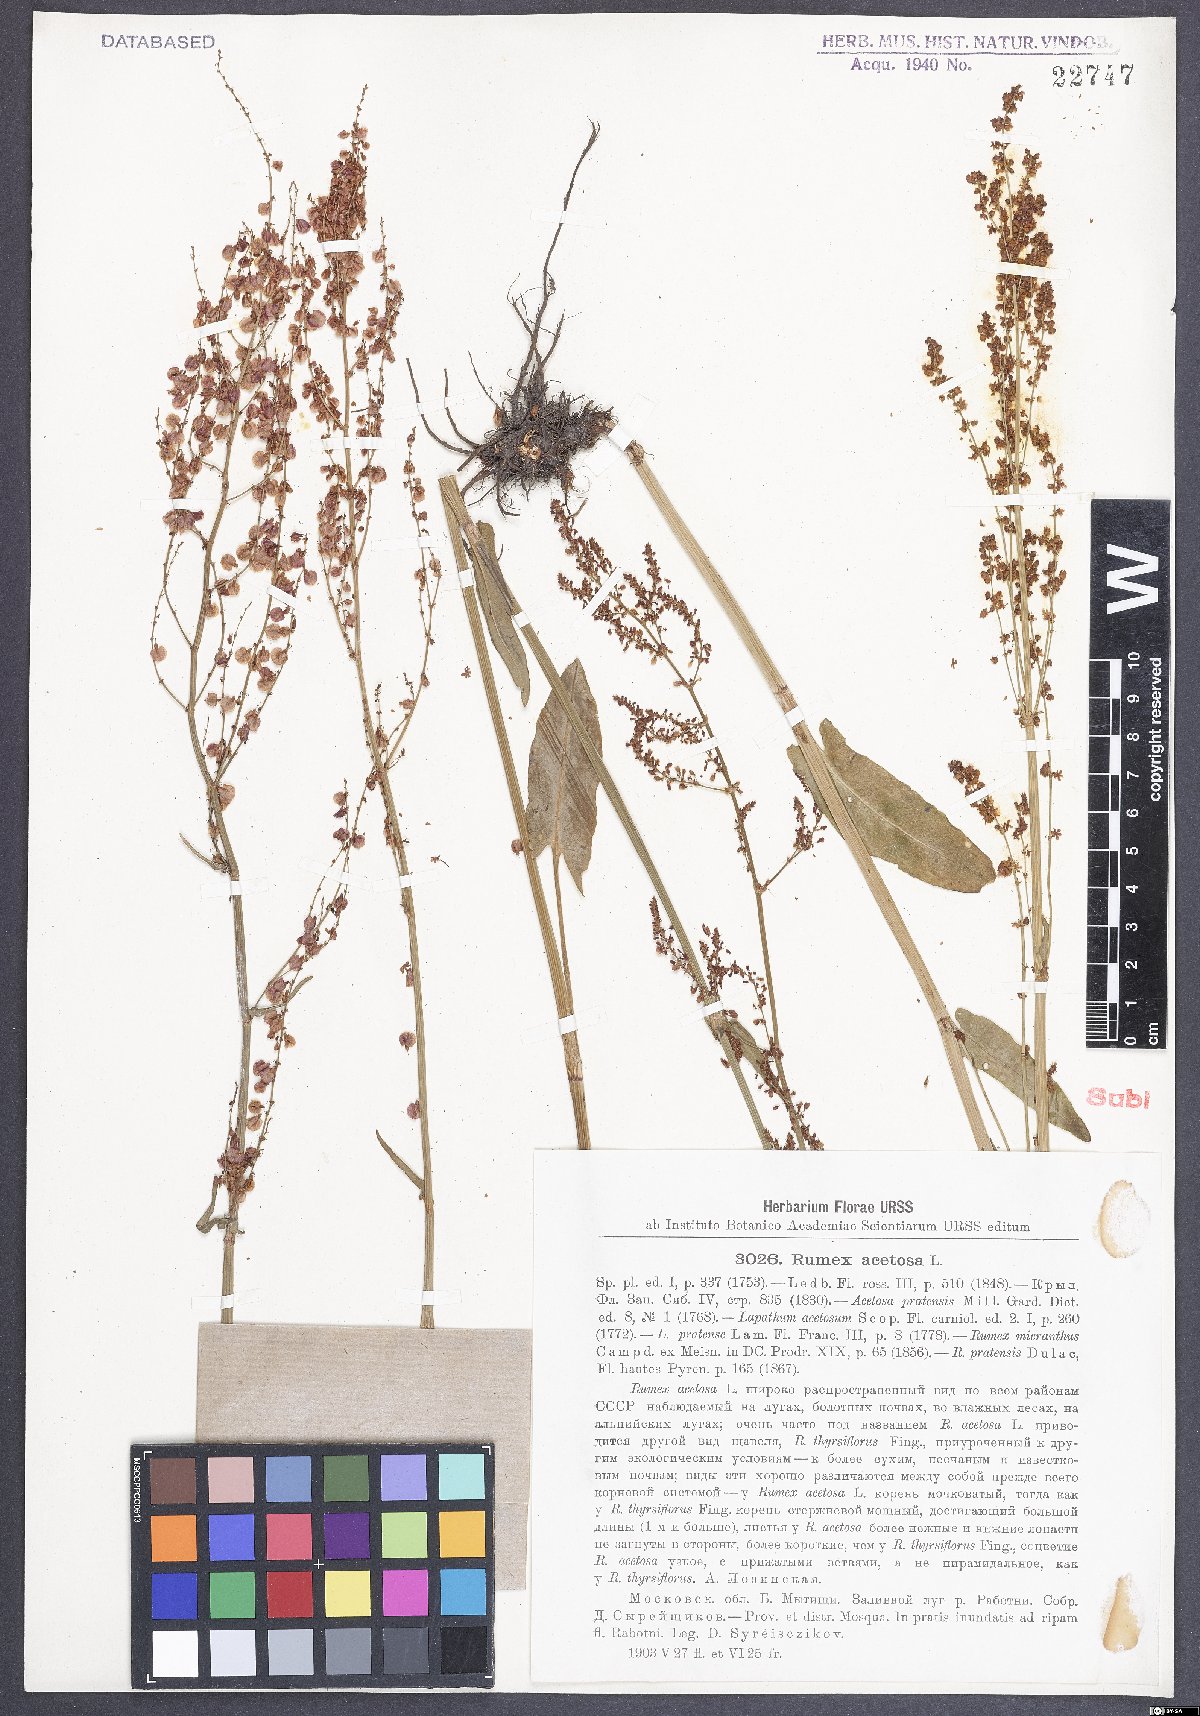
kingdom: Plantae
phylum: Tracheophyta
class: Magnoliopsida
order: Caryophyllales
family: Polygonaceae
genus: Rumex
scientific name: Rumex acetosa
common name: Garden sorrel
